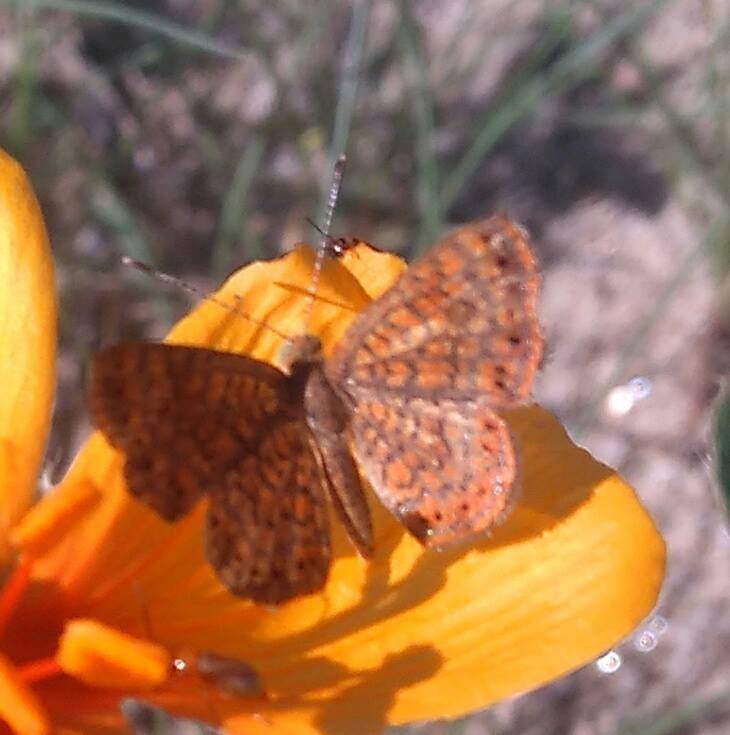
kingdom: Animalia
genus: Calephelis
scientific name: Calephelis nemesis
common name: Fatal Metalmark
